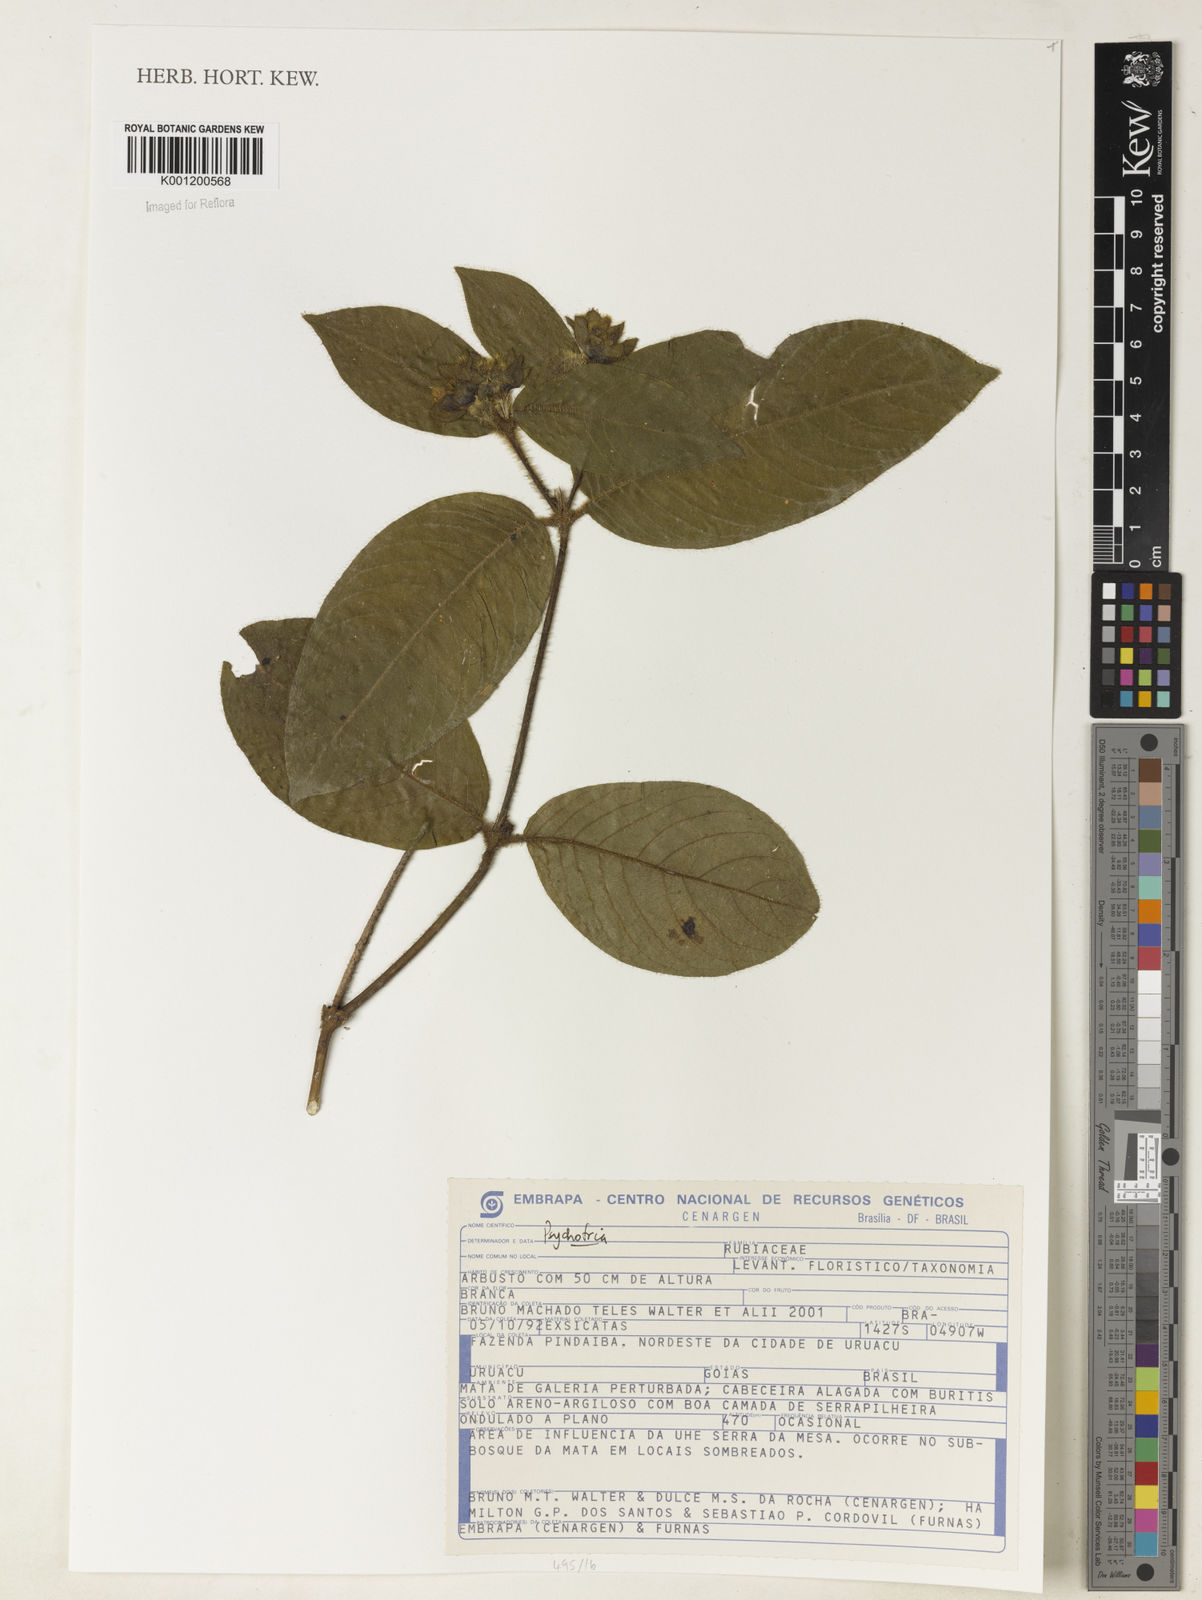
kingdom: Plantae
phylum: Tracheophyta
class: Magnoliopsida
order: Gentianales
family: Rubiaceae
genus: Psychotria
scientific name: Psychotria
